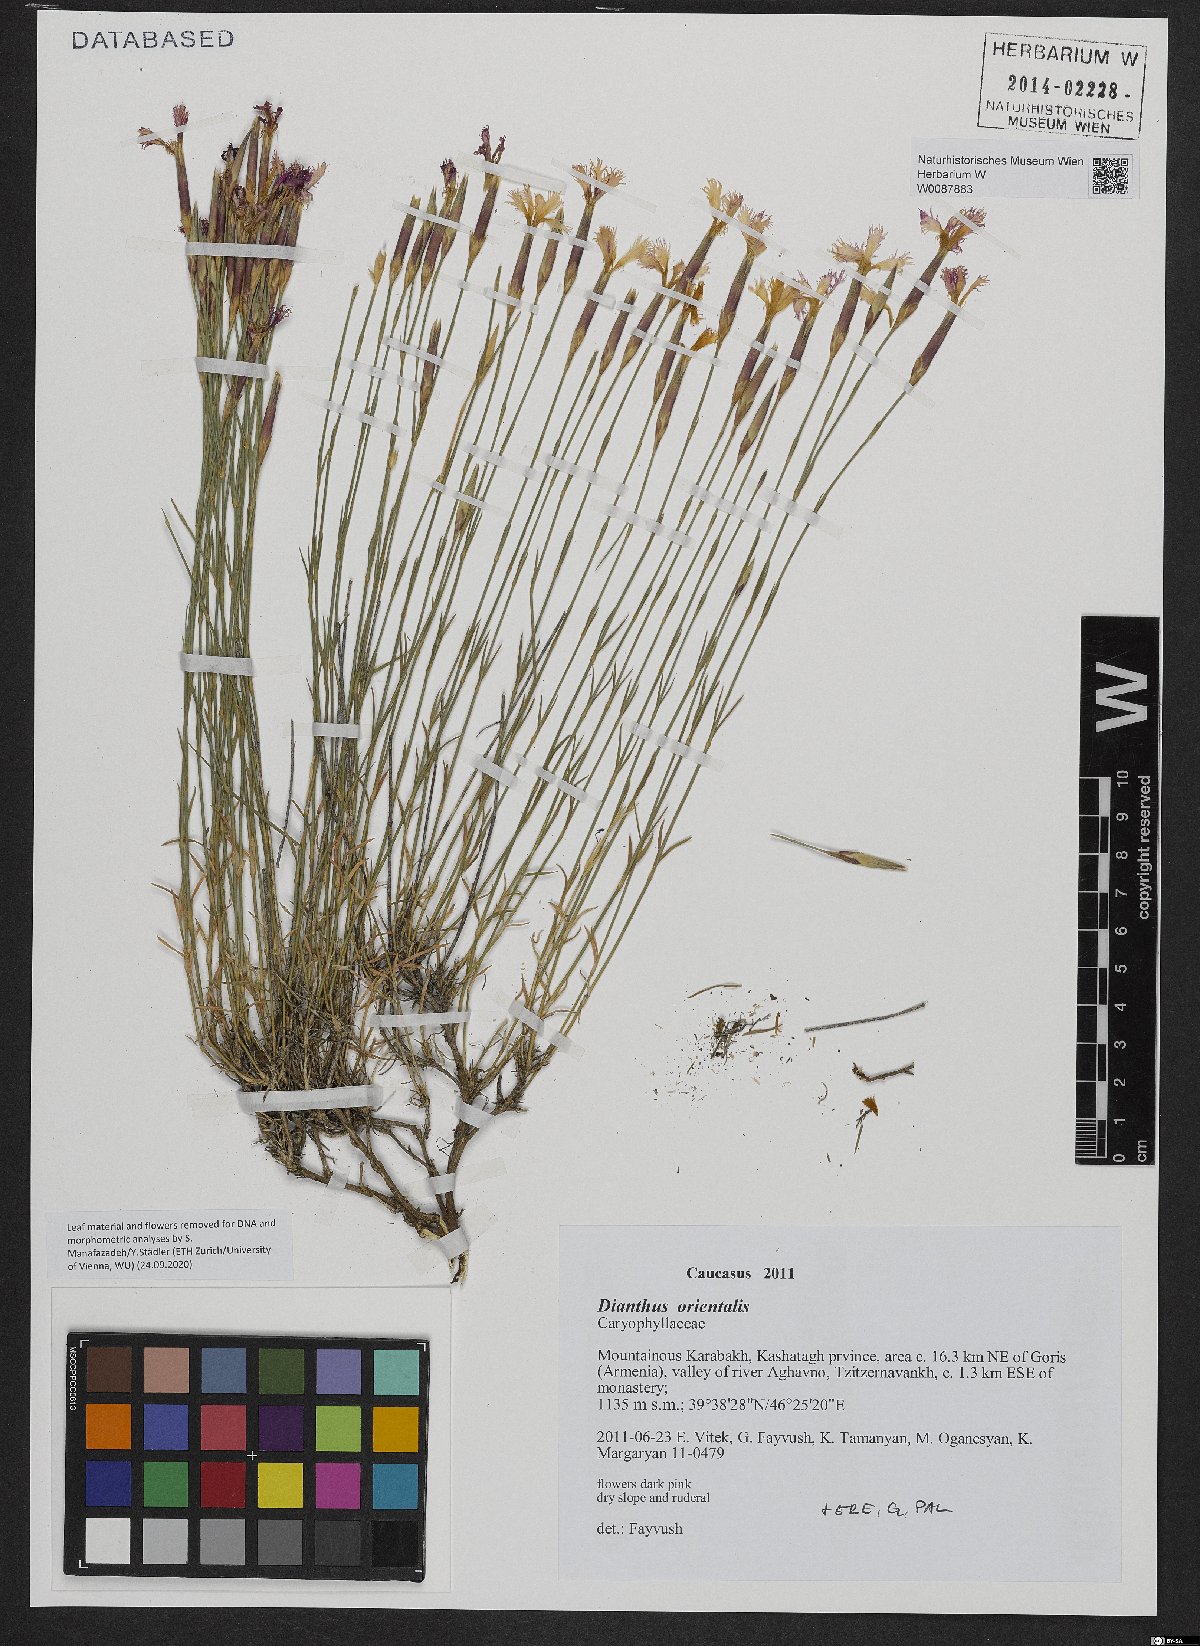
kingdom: Plantae
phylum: Tracheophyta
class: Magnoliopsida
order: Caryophyllales
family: Caryophyllaceae
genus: Dianthus
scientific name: Dianthus orientalis
